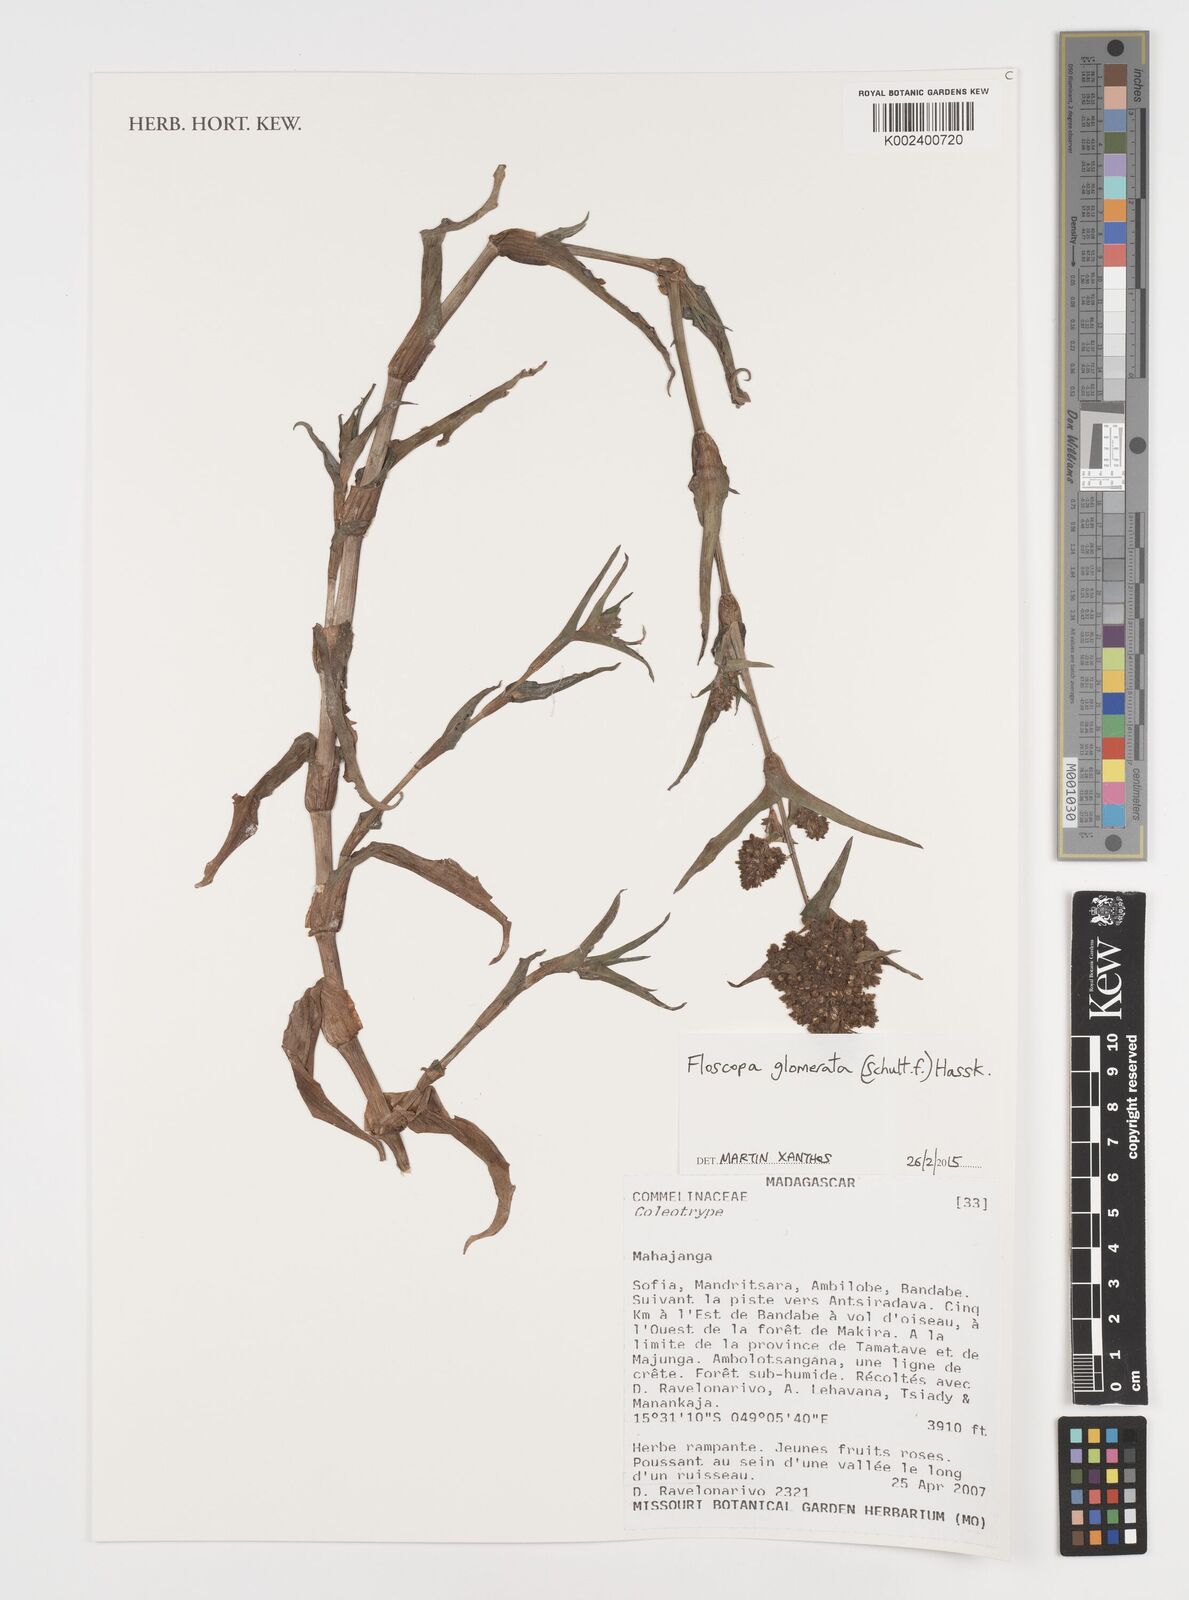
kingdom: Plantae
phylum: Tracheophyta
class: Liliopsida
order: Commelinales
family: Commelinaceae
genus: Floscopa
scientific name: Floscopa glomerata
